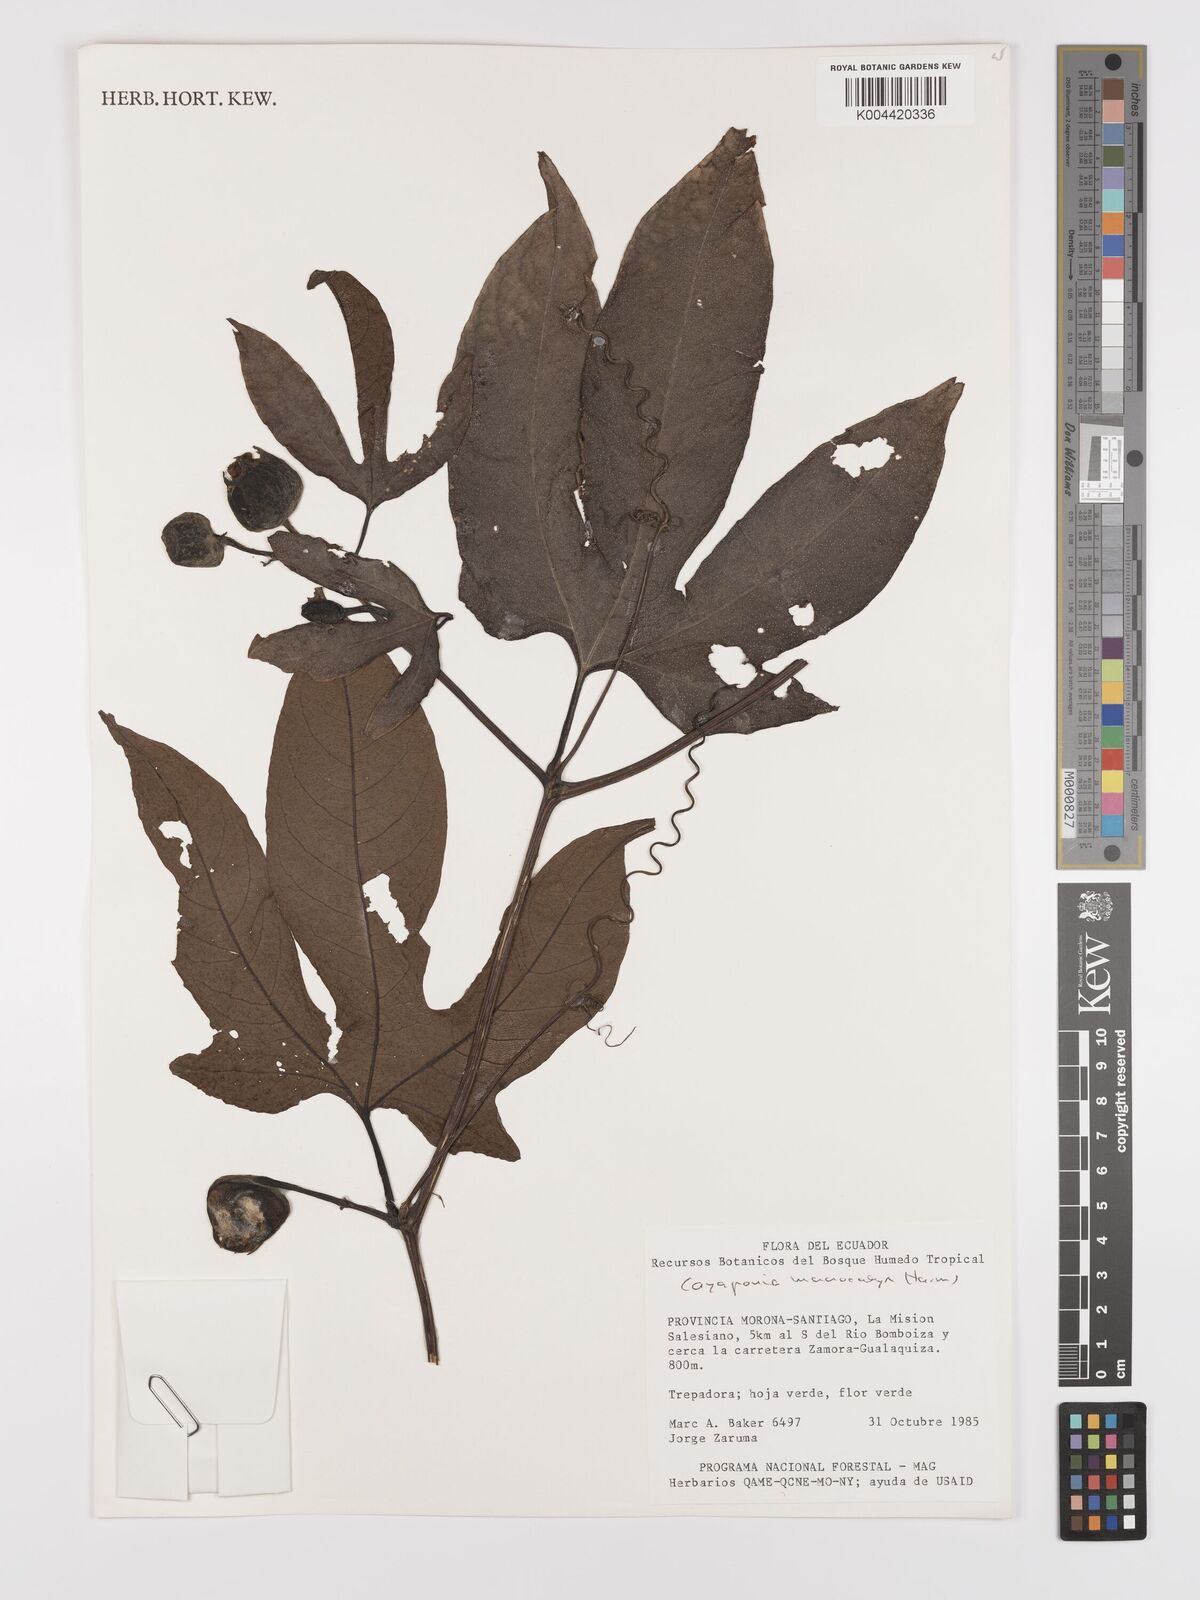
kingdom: Plantae
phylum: Tracheophyta
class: Magnoliopsida
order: Cucurbitales
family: Cucurbitaceae
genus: Cayaponia
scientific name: Cayaponia macrocalyx
